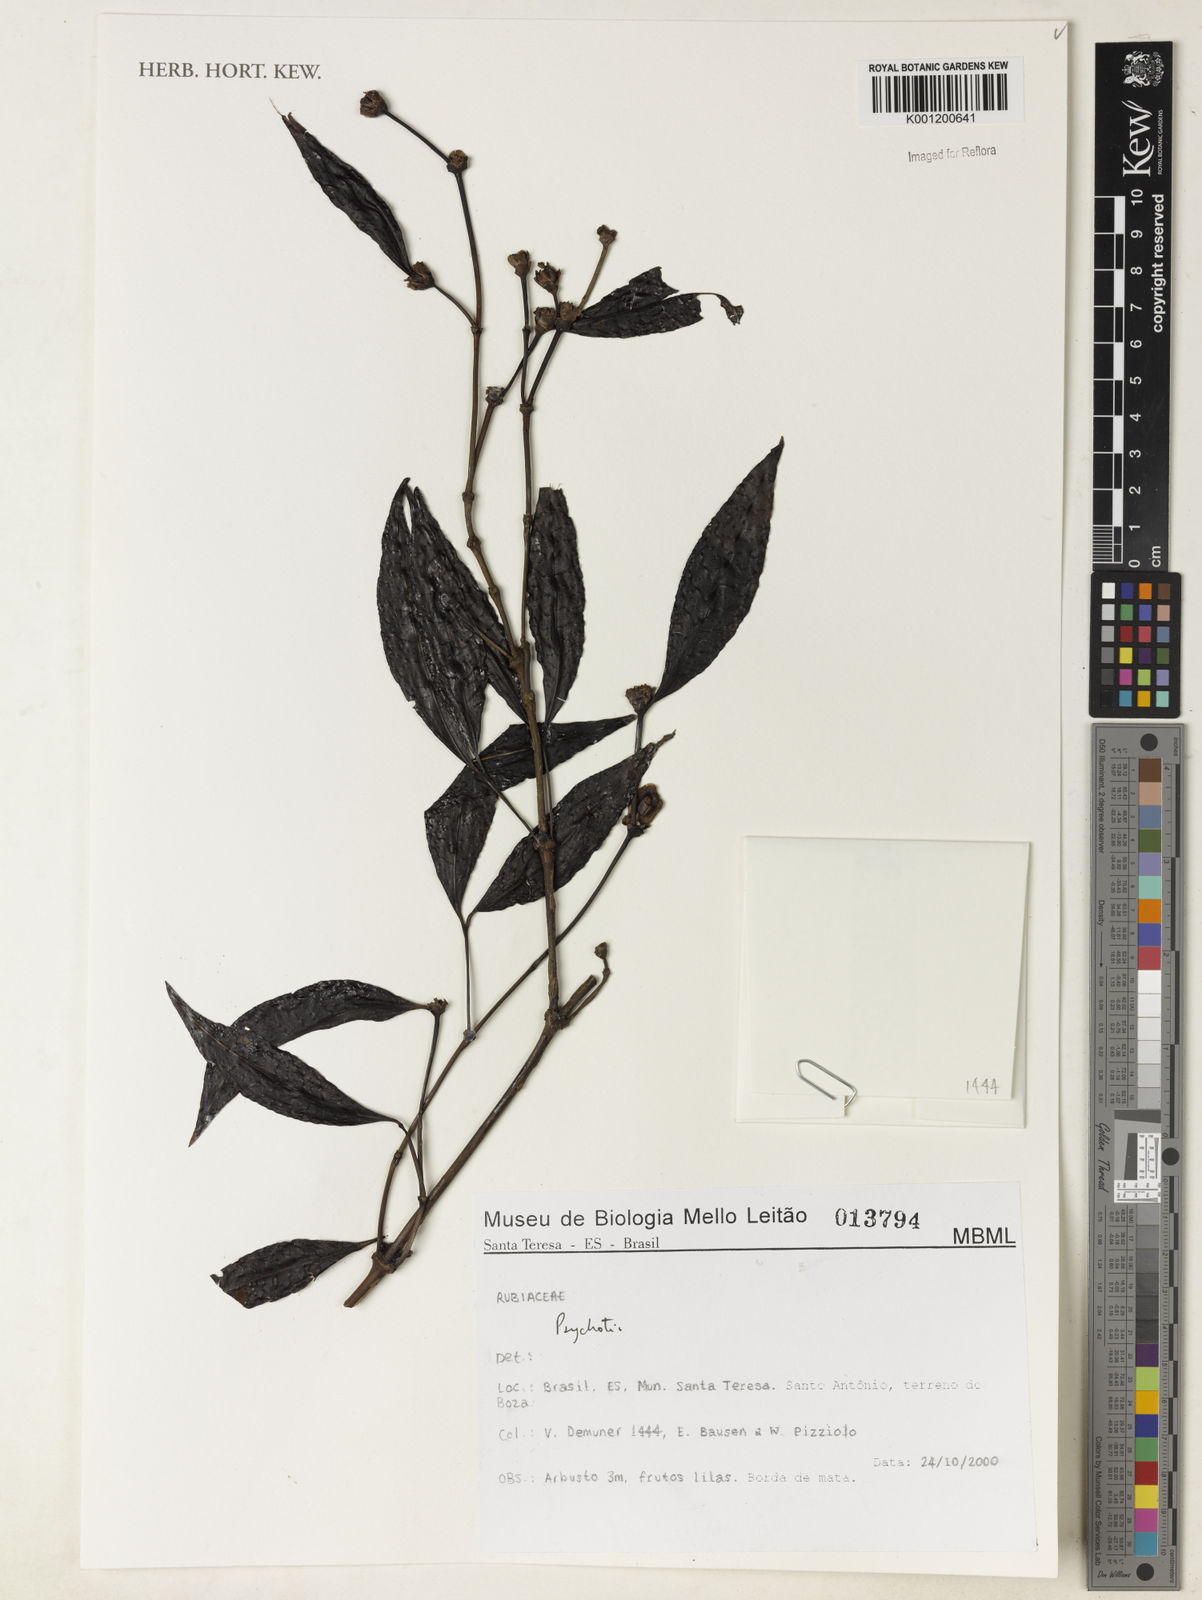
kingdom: Plantae
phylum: Tracheophyta
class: Magnoliopsida
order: Gentianales
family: Rubiaceae
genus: Psychotria
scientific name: Psychotria
